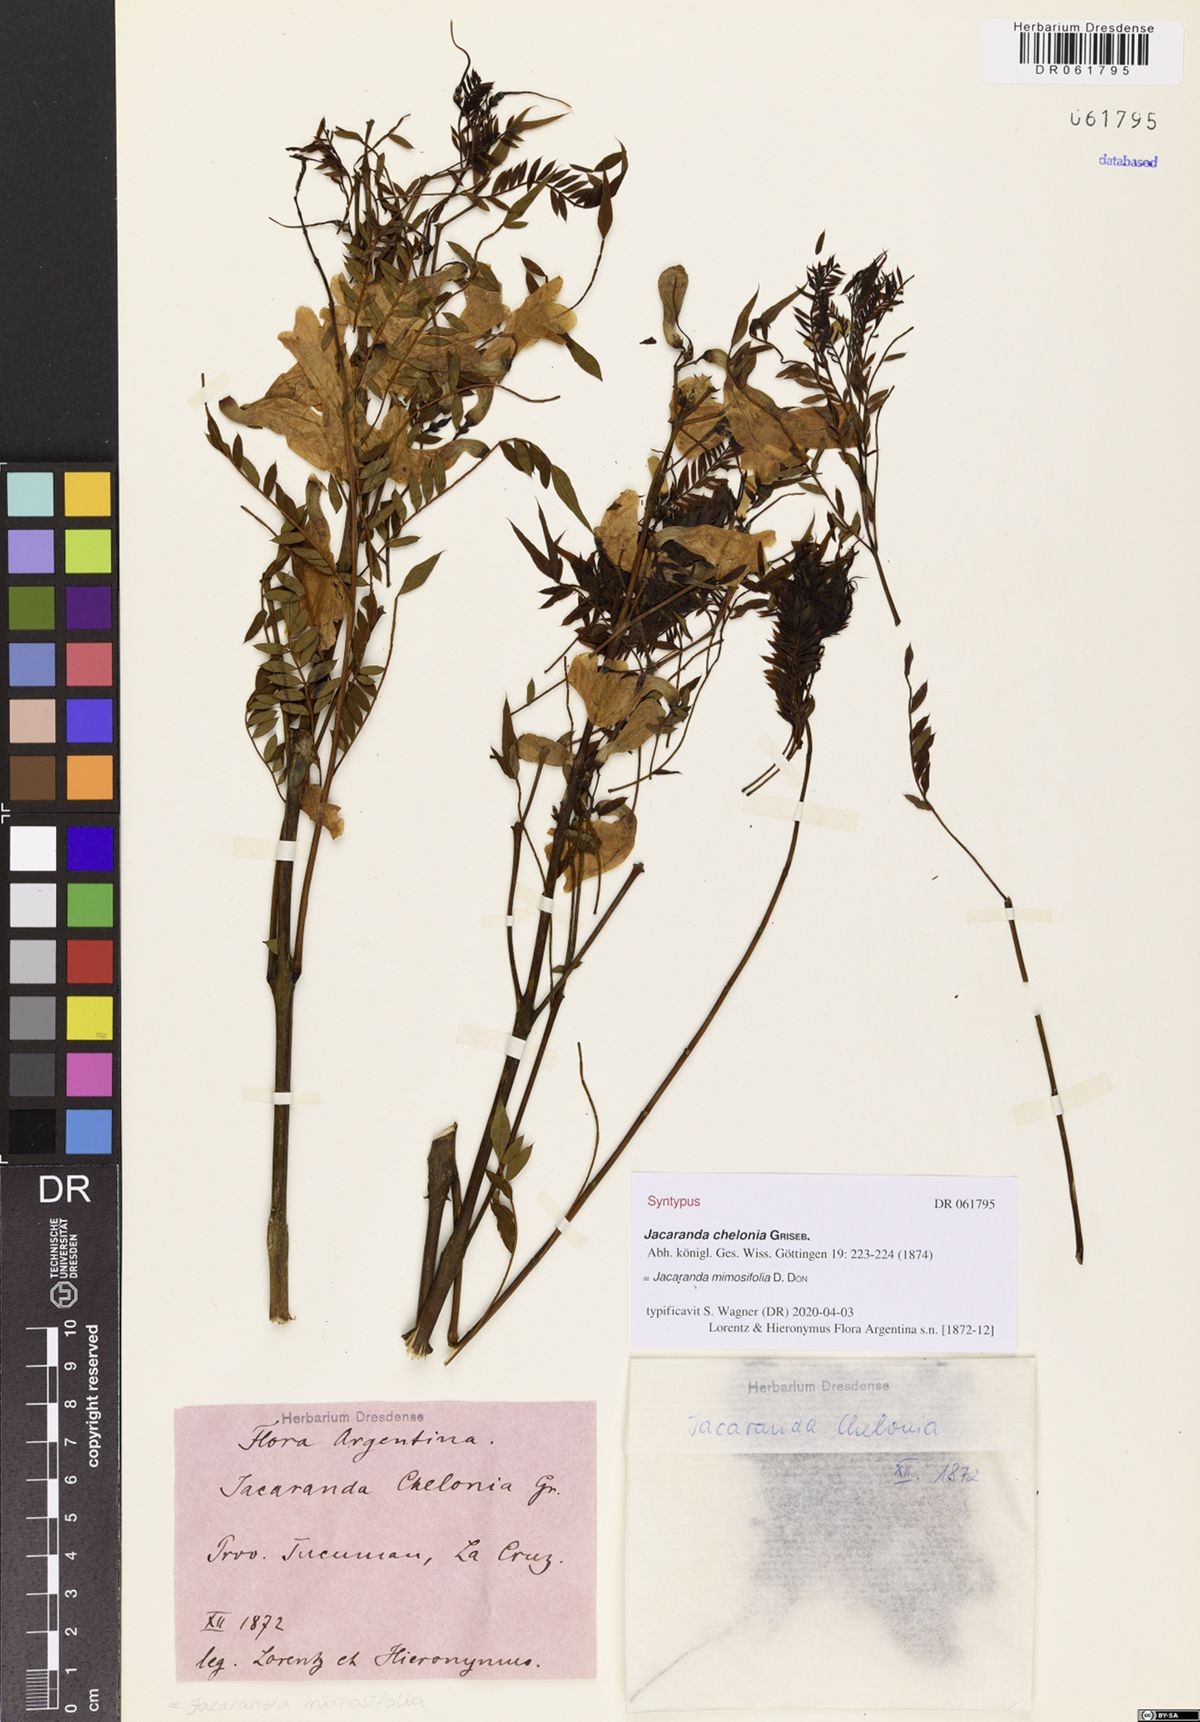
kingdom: Plantae
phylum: Tracheophyta
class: Magnoliopsida
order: Lamiales
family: Bignoniaceae
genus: Jacaranda
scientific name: Jacaranda mimosifolia
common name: Black poui
